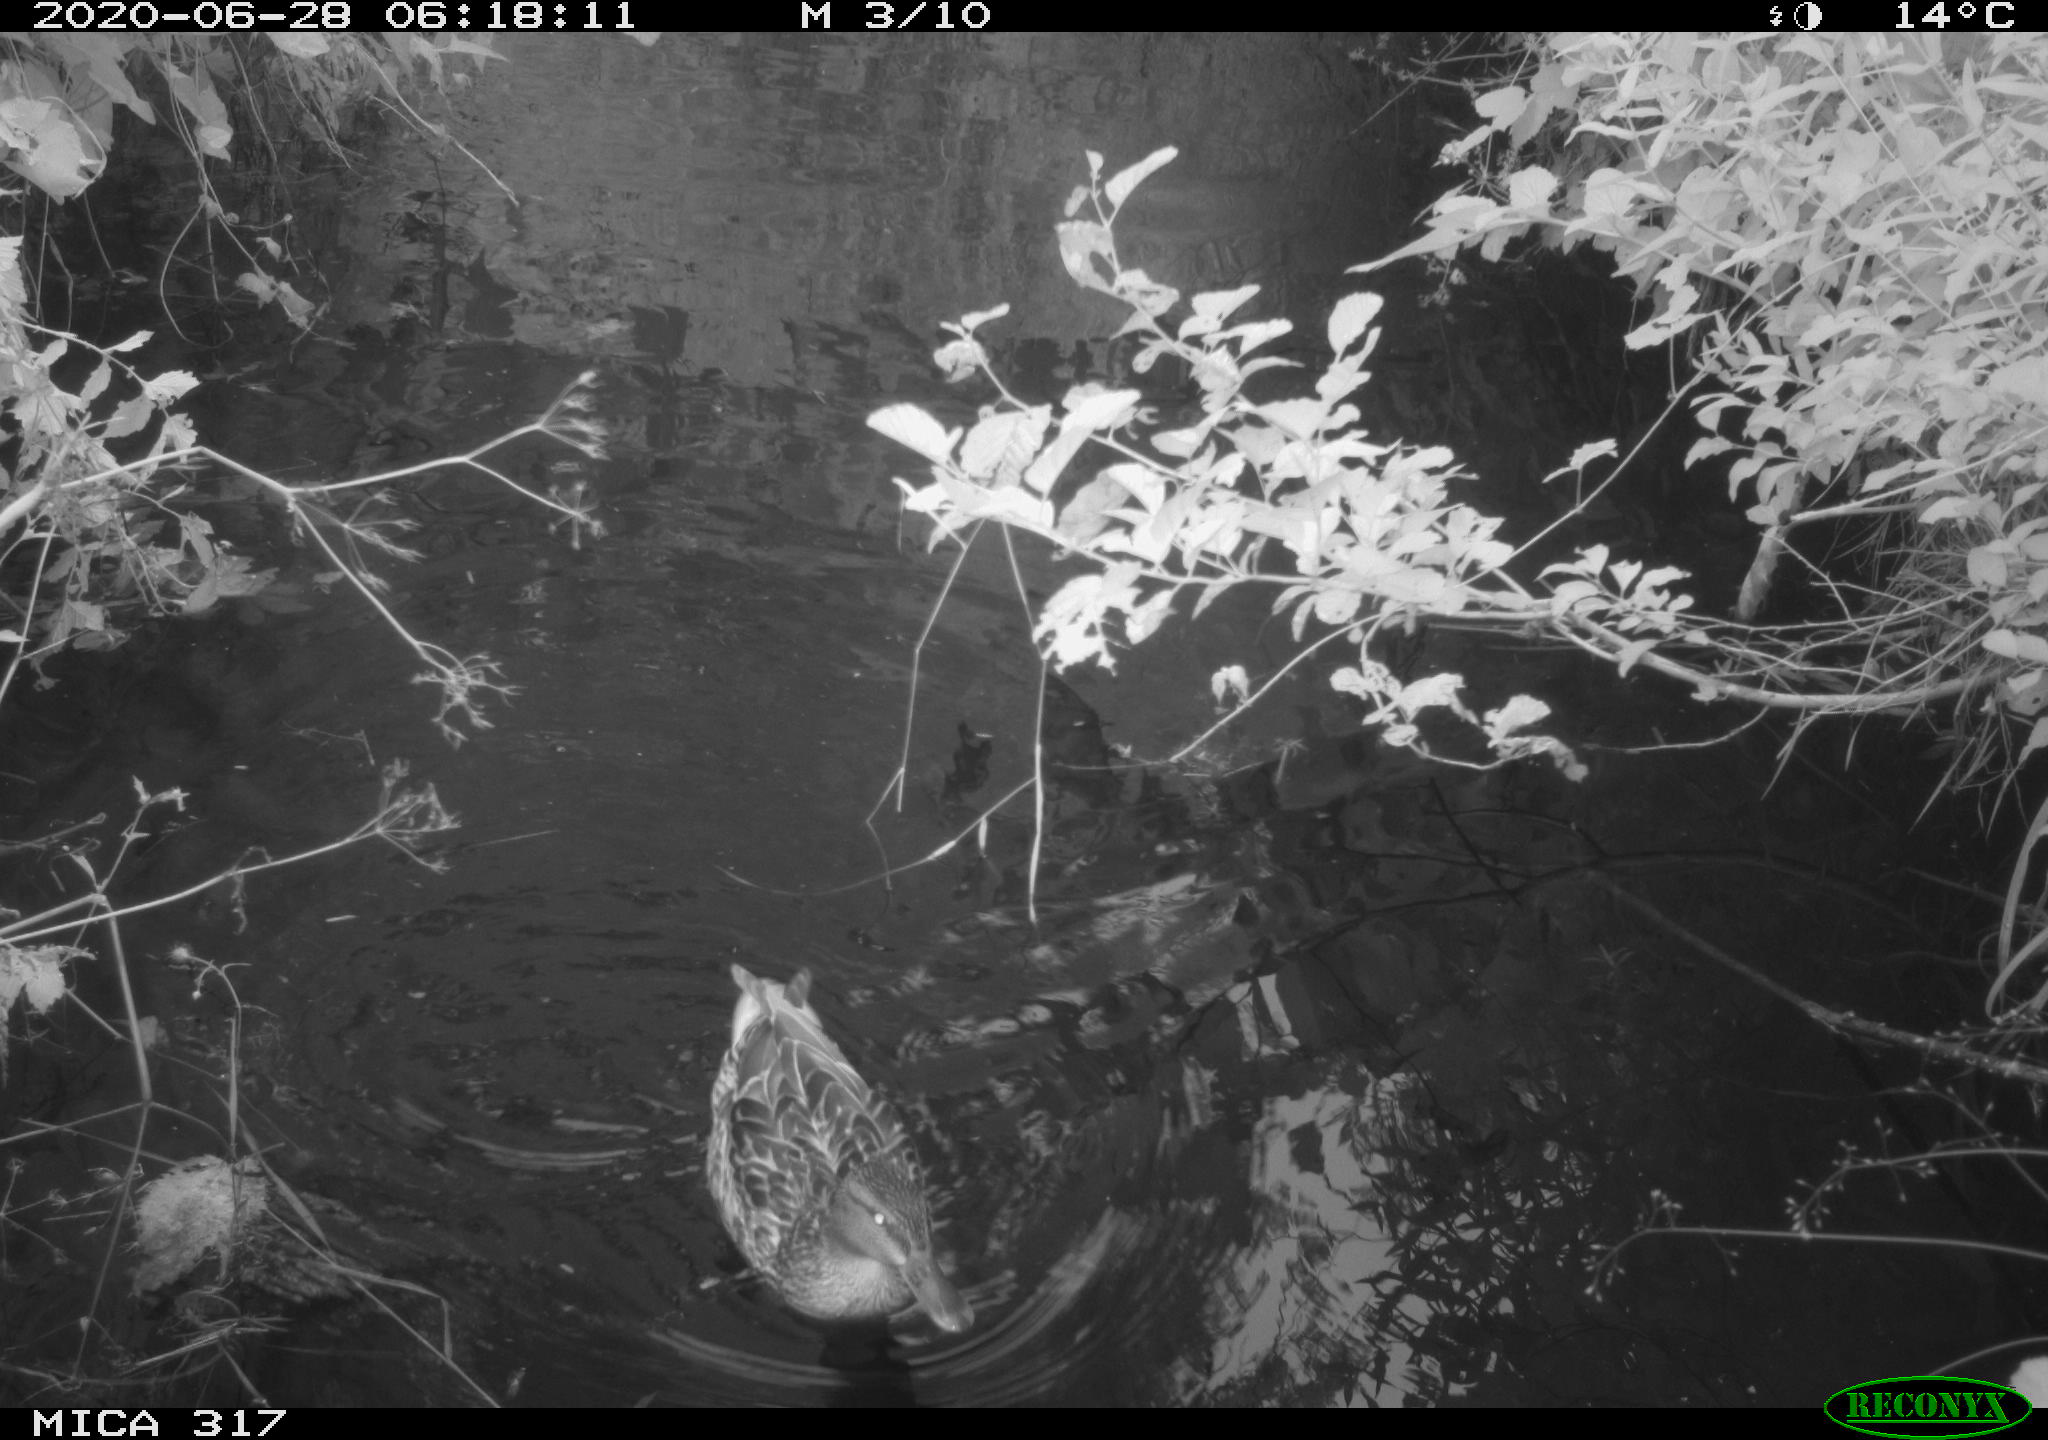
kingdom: Animalia
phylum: Chordata
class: Aves
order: Anseriformes
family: Anatidae
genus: Anas
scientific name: Anas platyrhynchos
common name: Mallard
